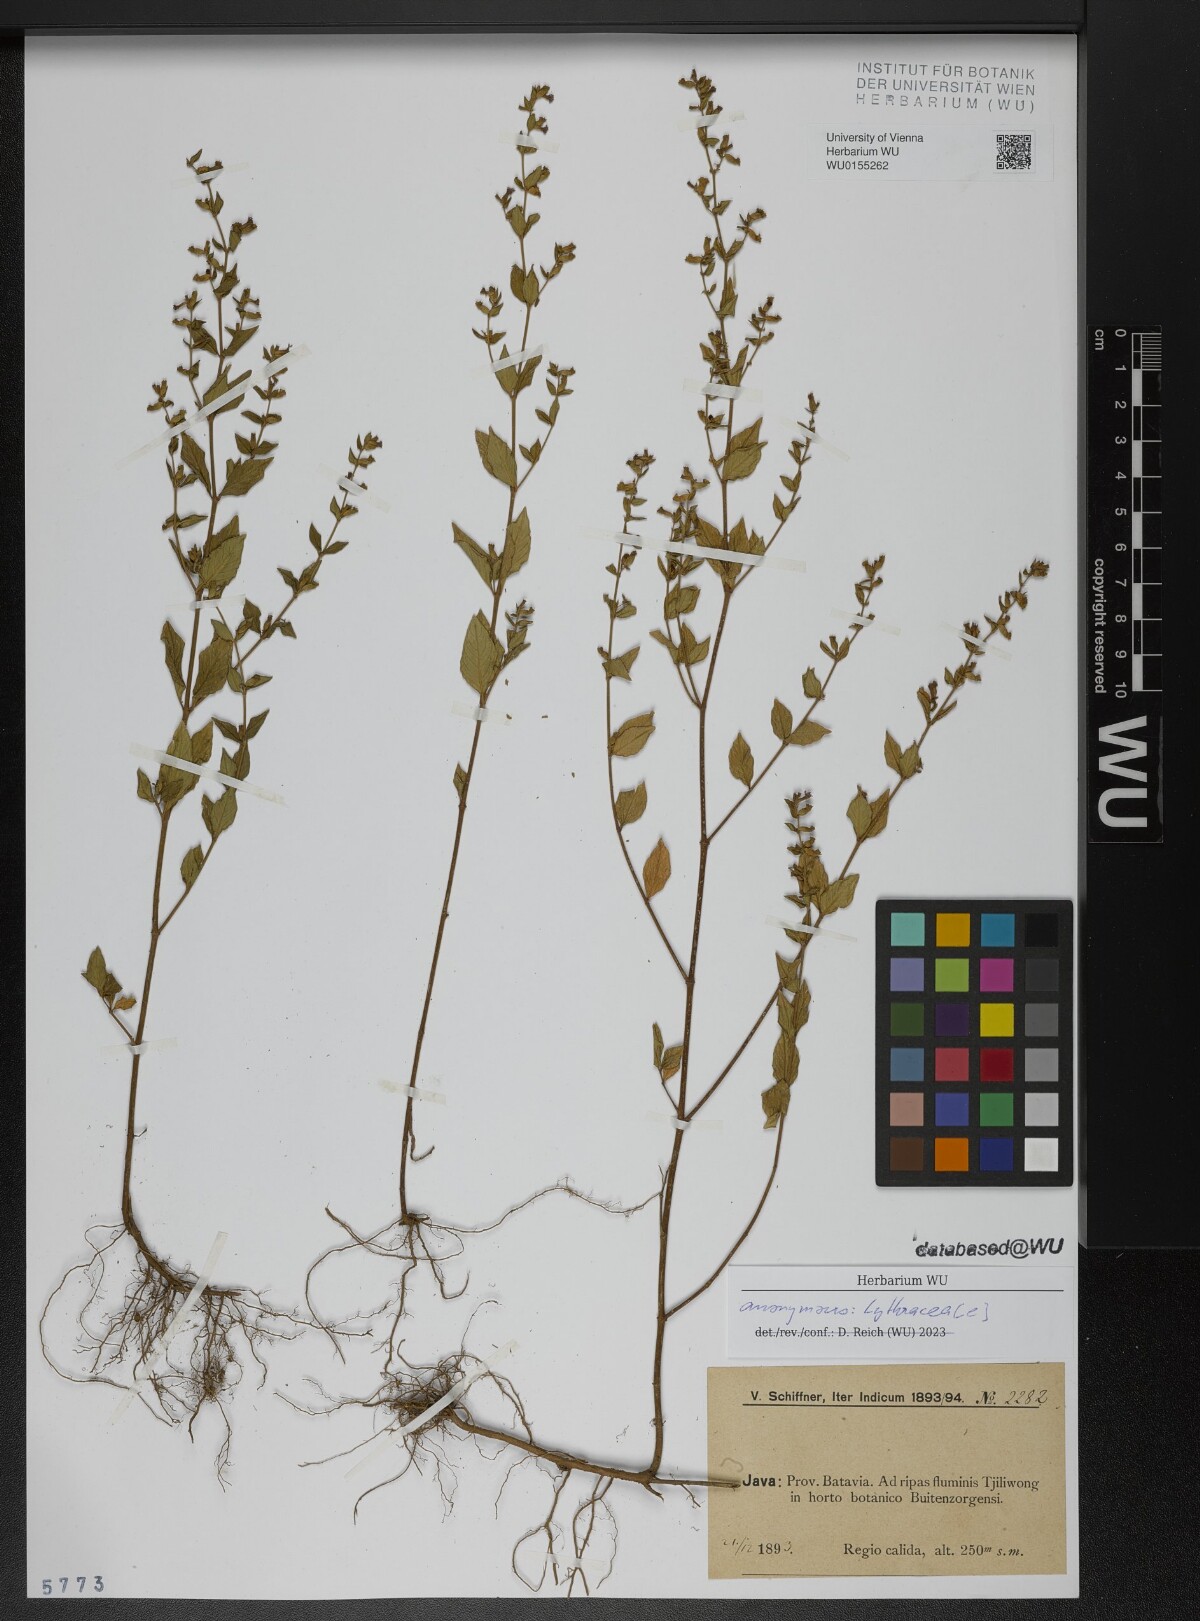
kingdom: Plantae
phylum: Tracheophyta
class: Magnoliopsida
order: Myrtales
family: Lythraceae
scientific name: Lythraceae
